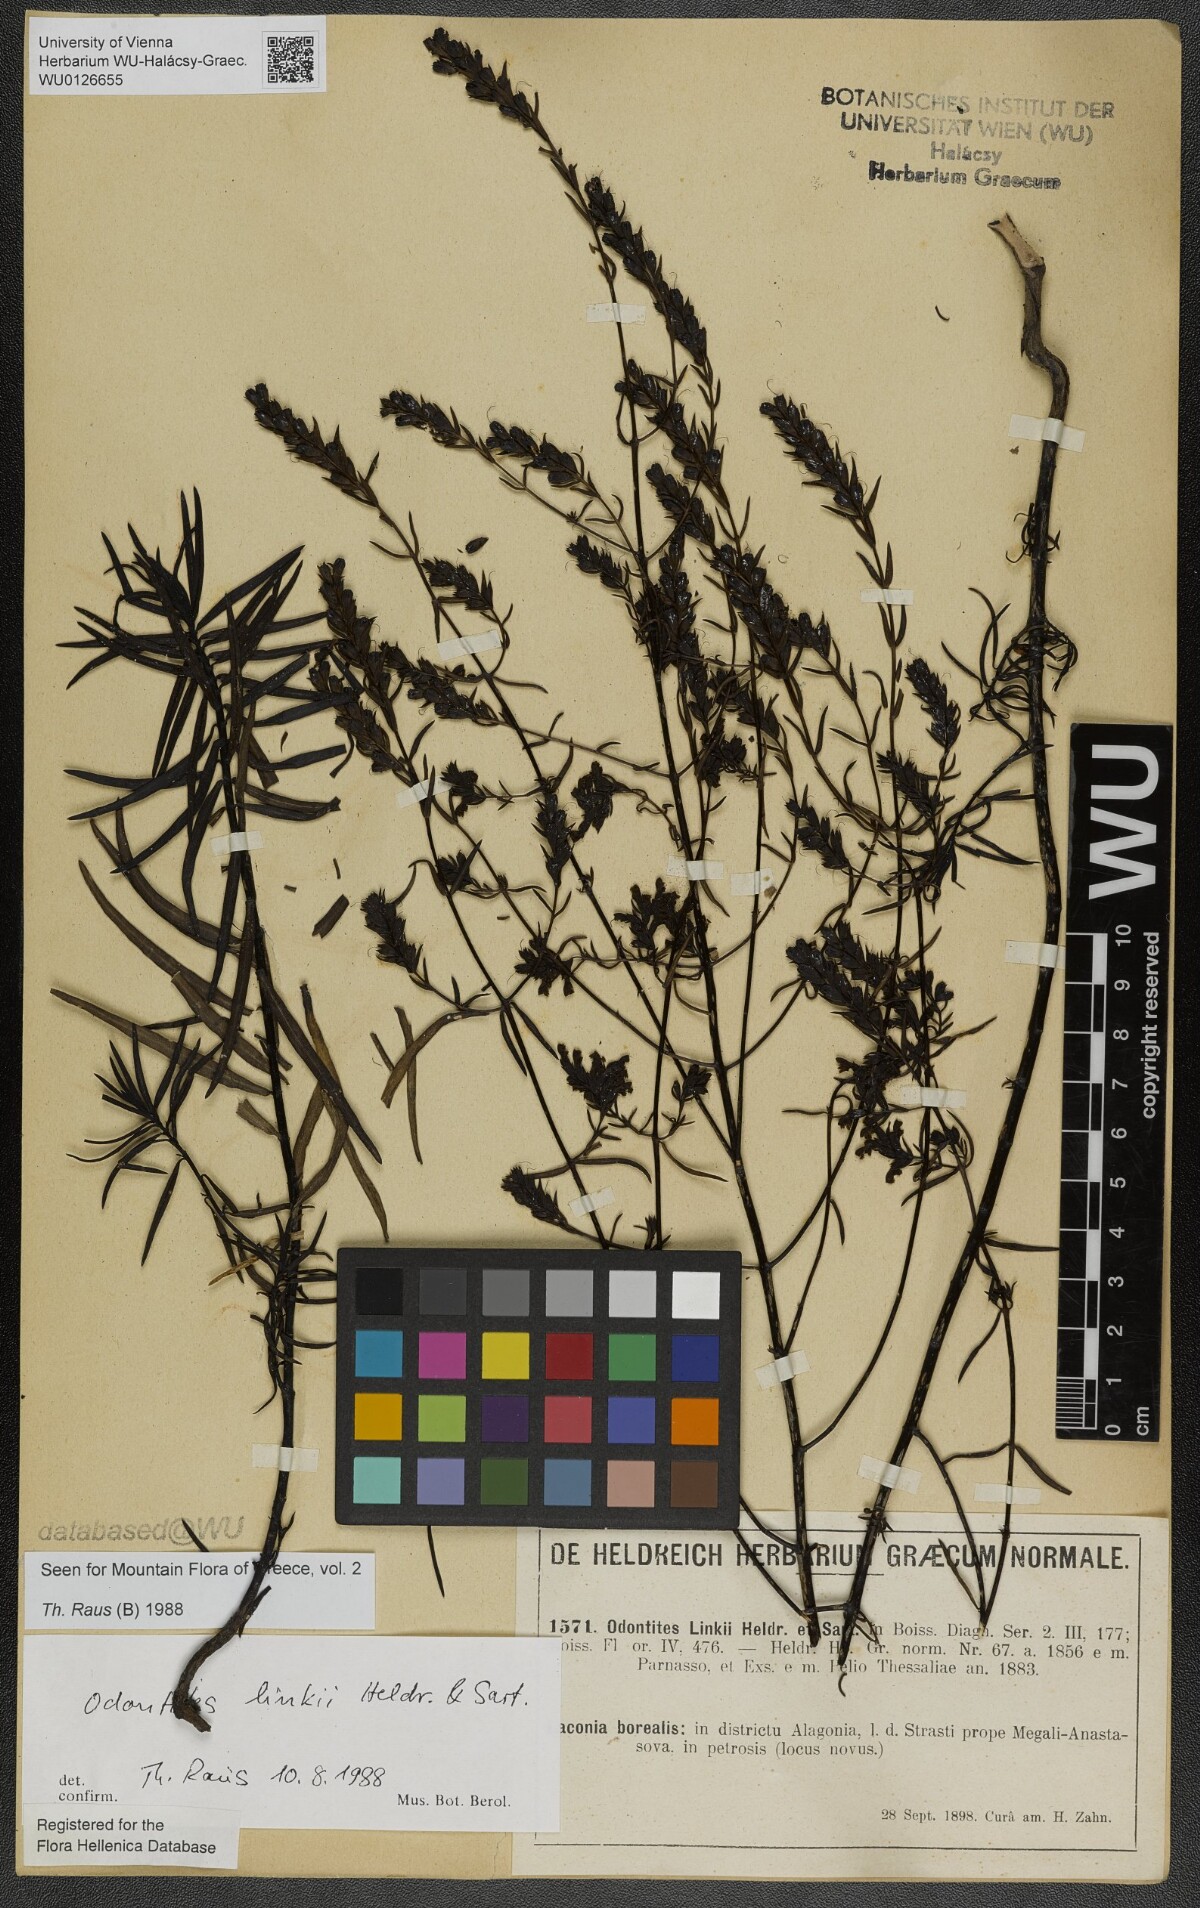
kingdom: Plantae
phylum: Tracheophyta
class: Magnoliopsida
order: Lamiales
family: Scrophulariaceae
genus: Odontites
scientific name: Odontites linkii
